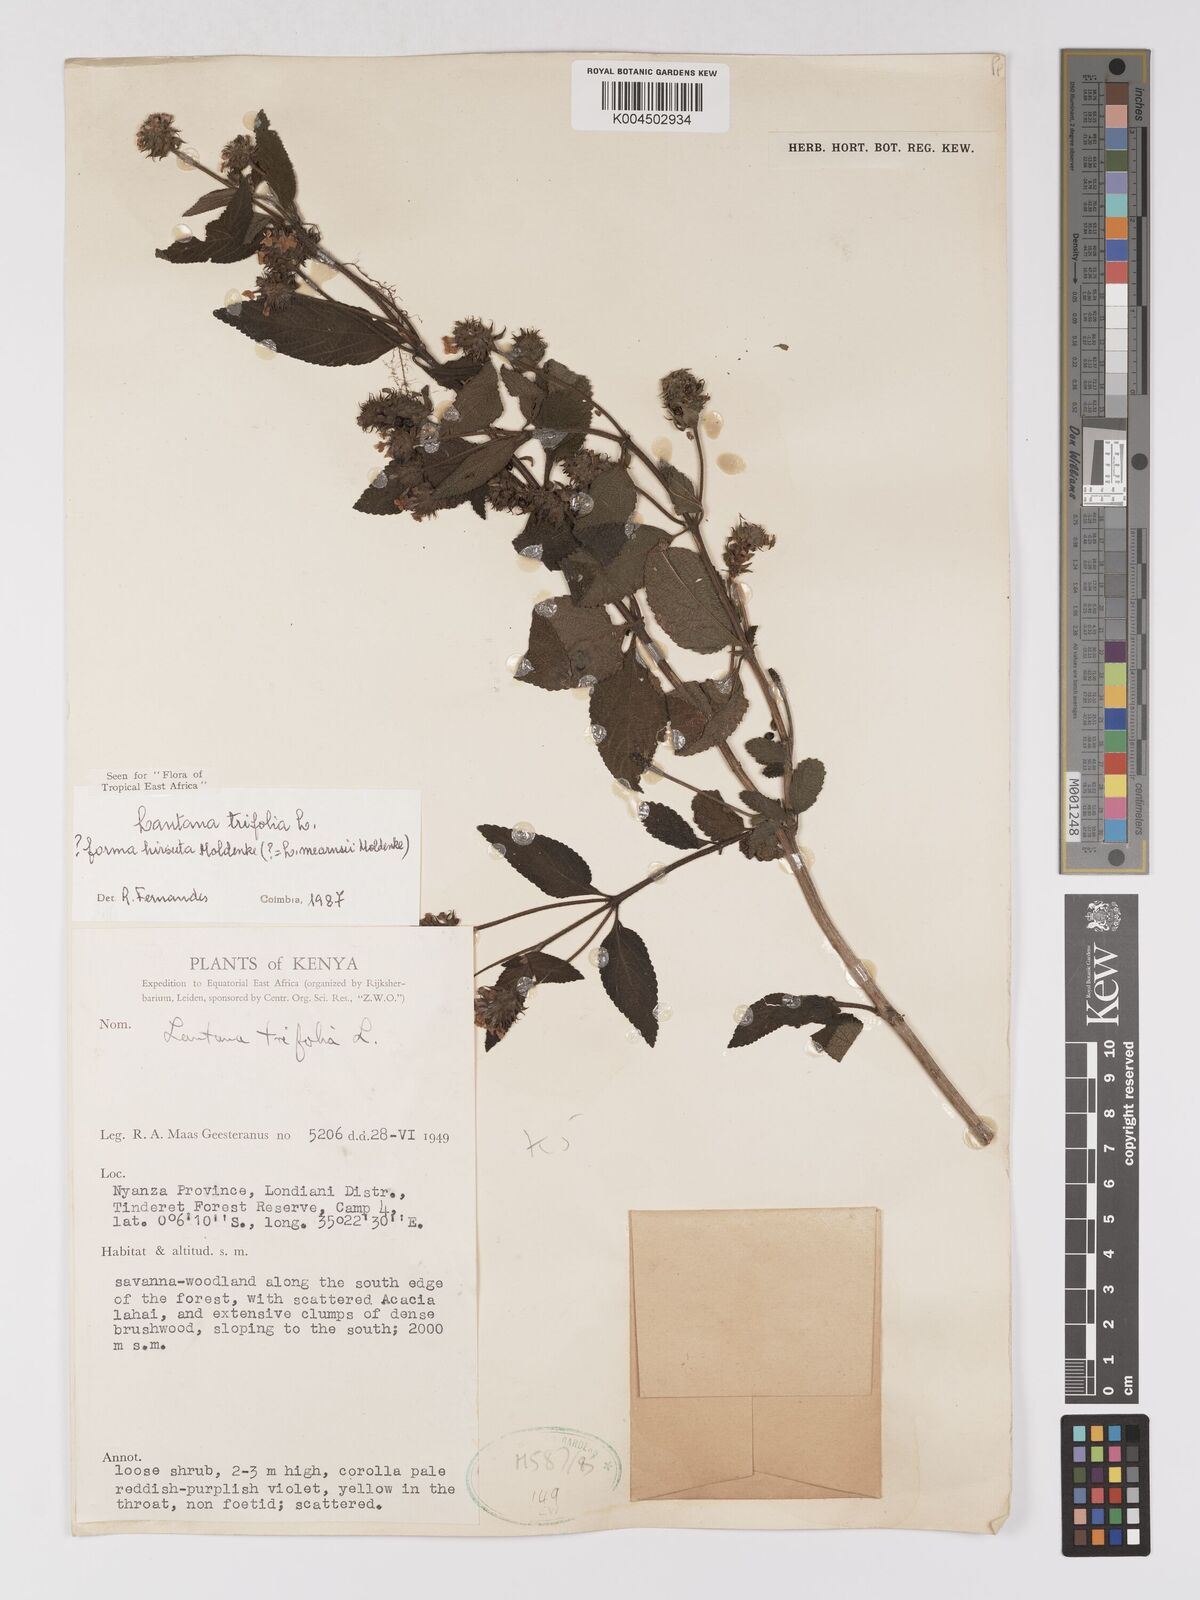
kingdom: Plantae
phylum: Tracheophyta
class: Magnoliopsida
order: Lamiales
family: Verbenaceae
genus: Lantana
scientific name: Lantana trifolia
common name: Sweet-sage
